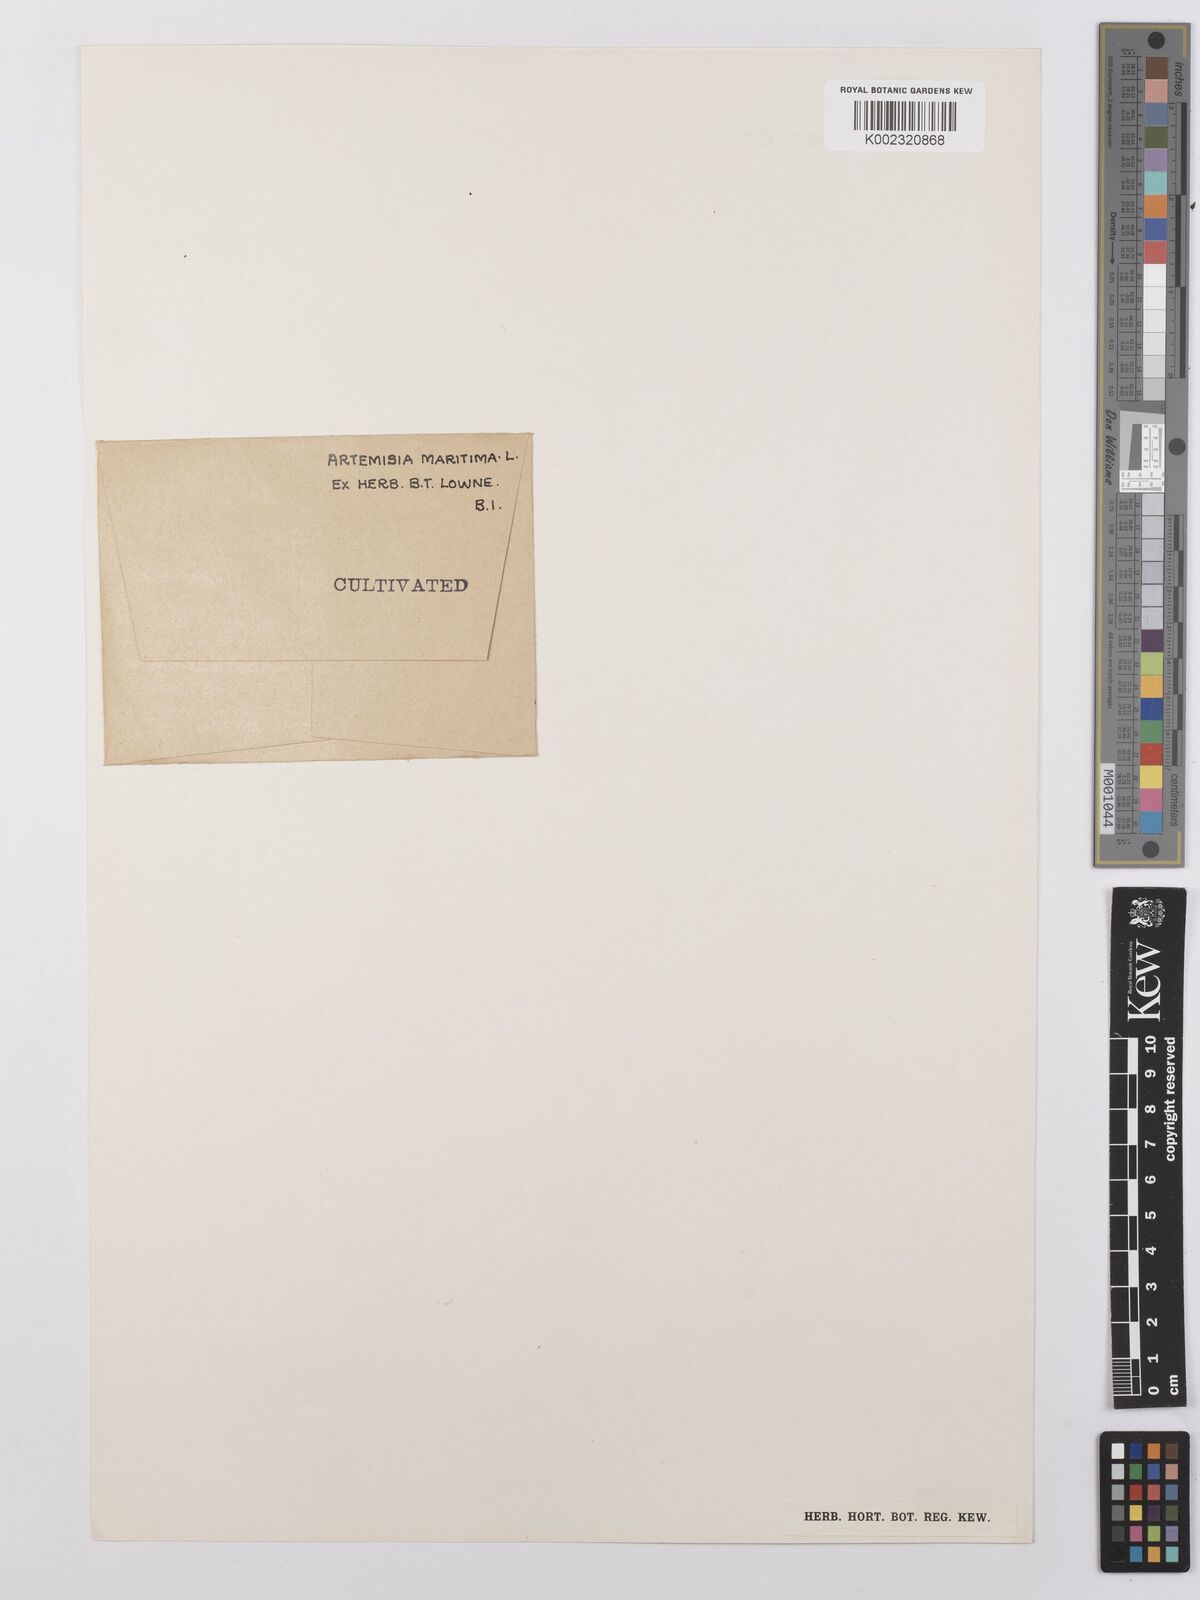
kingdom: Plantae
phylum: Tracheophyta
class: Magnoliopsida
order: Asterales
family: Asteraceae
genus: Artemisia
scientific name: Artemisia maritima
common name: Wormseed
